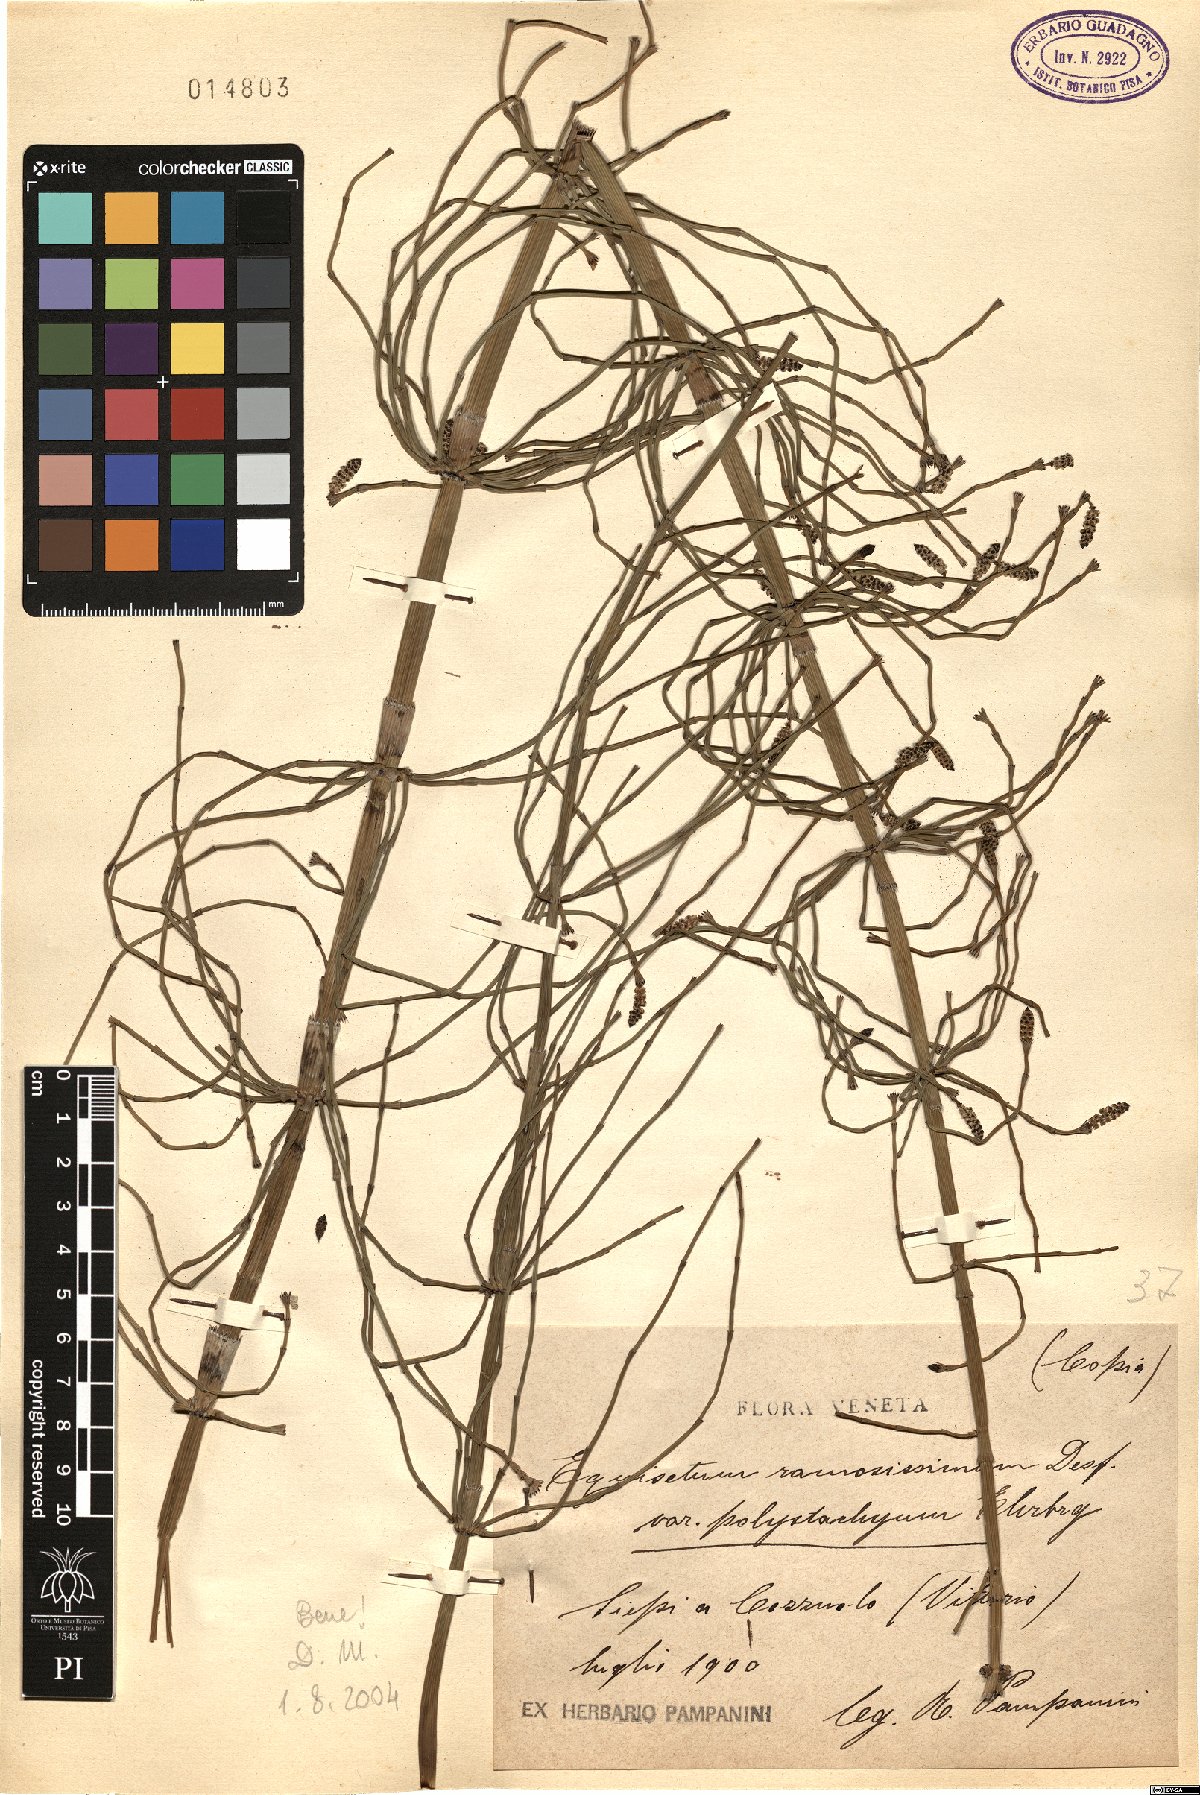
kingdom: Plantae
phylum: Tracheophyta
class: Polypodiopsida
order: Equisetales
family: Equisetaceae
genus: Equisetum
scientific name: Equisetum ramosissimum
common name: Branched horsetail
